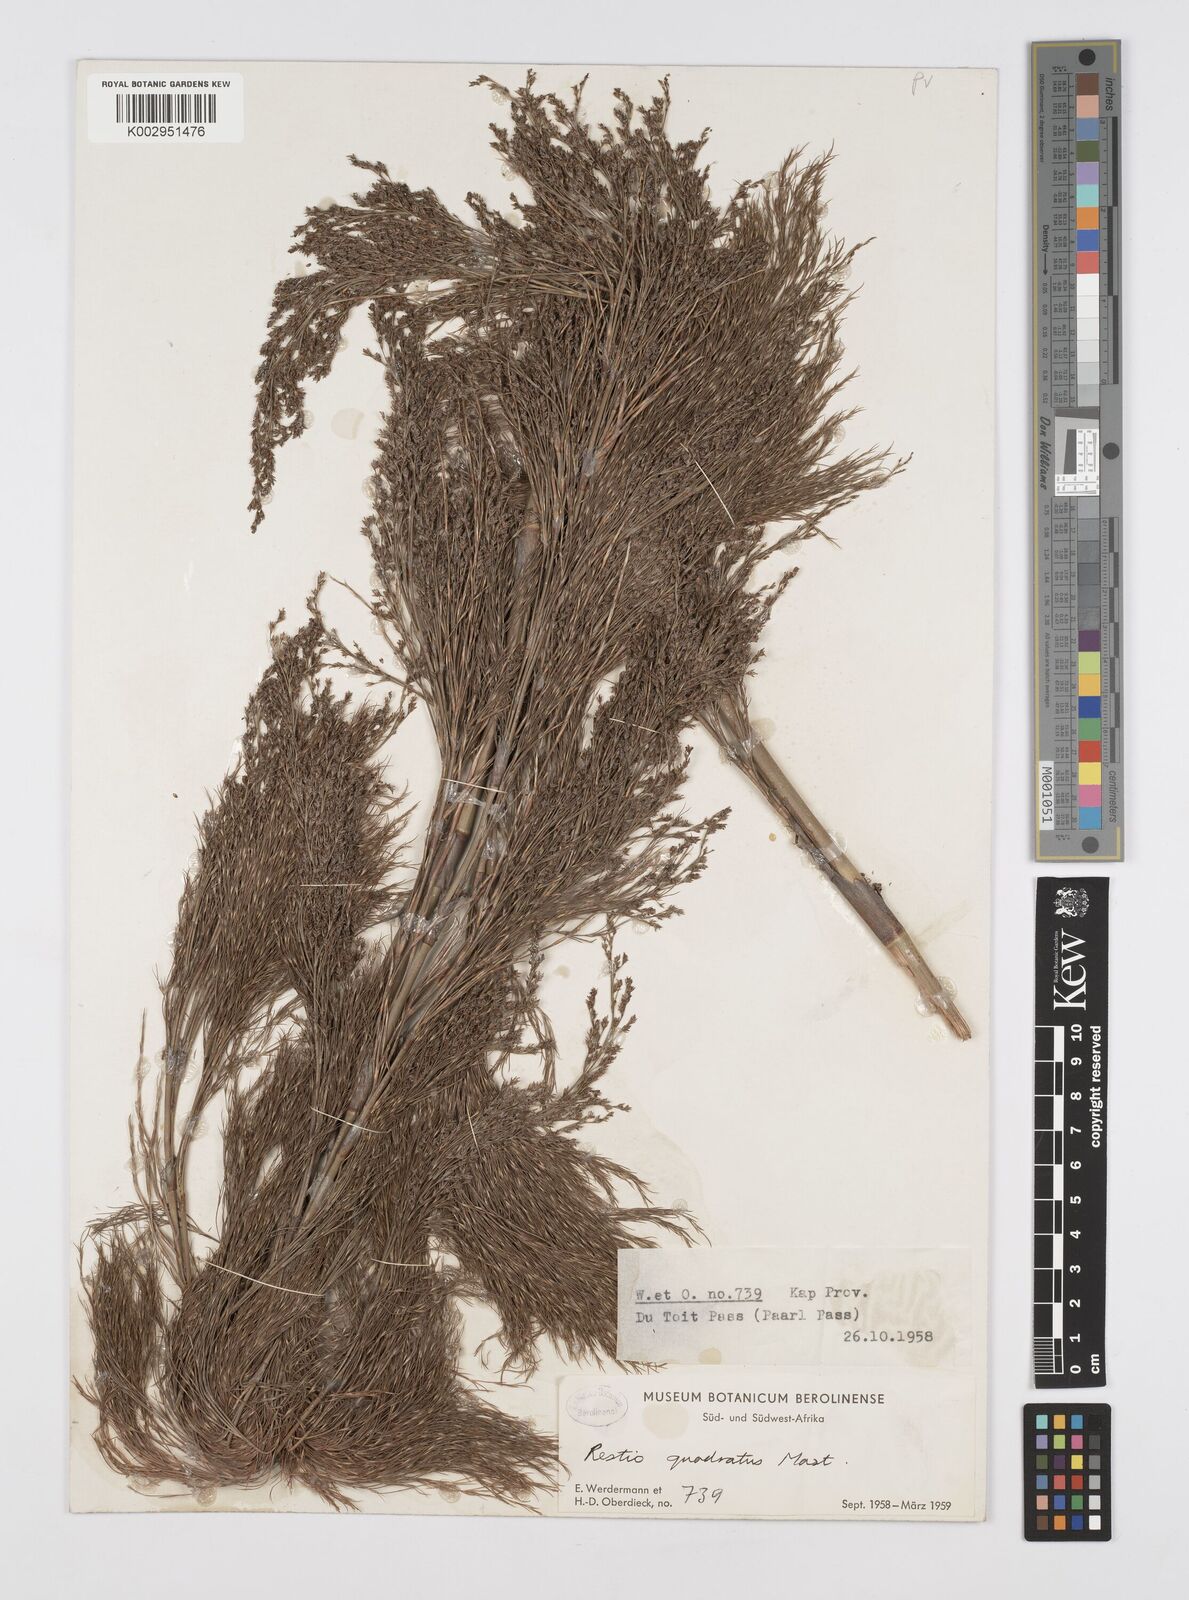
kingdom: Plantae
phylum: Tracheophyta
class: Liliopsida
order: Poales
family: Restionaceae
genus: Restio
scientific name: Restio quadratus
